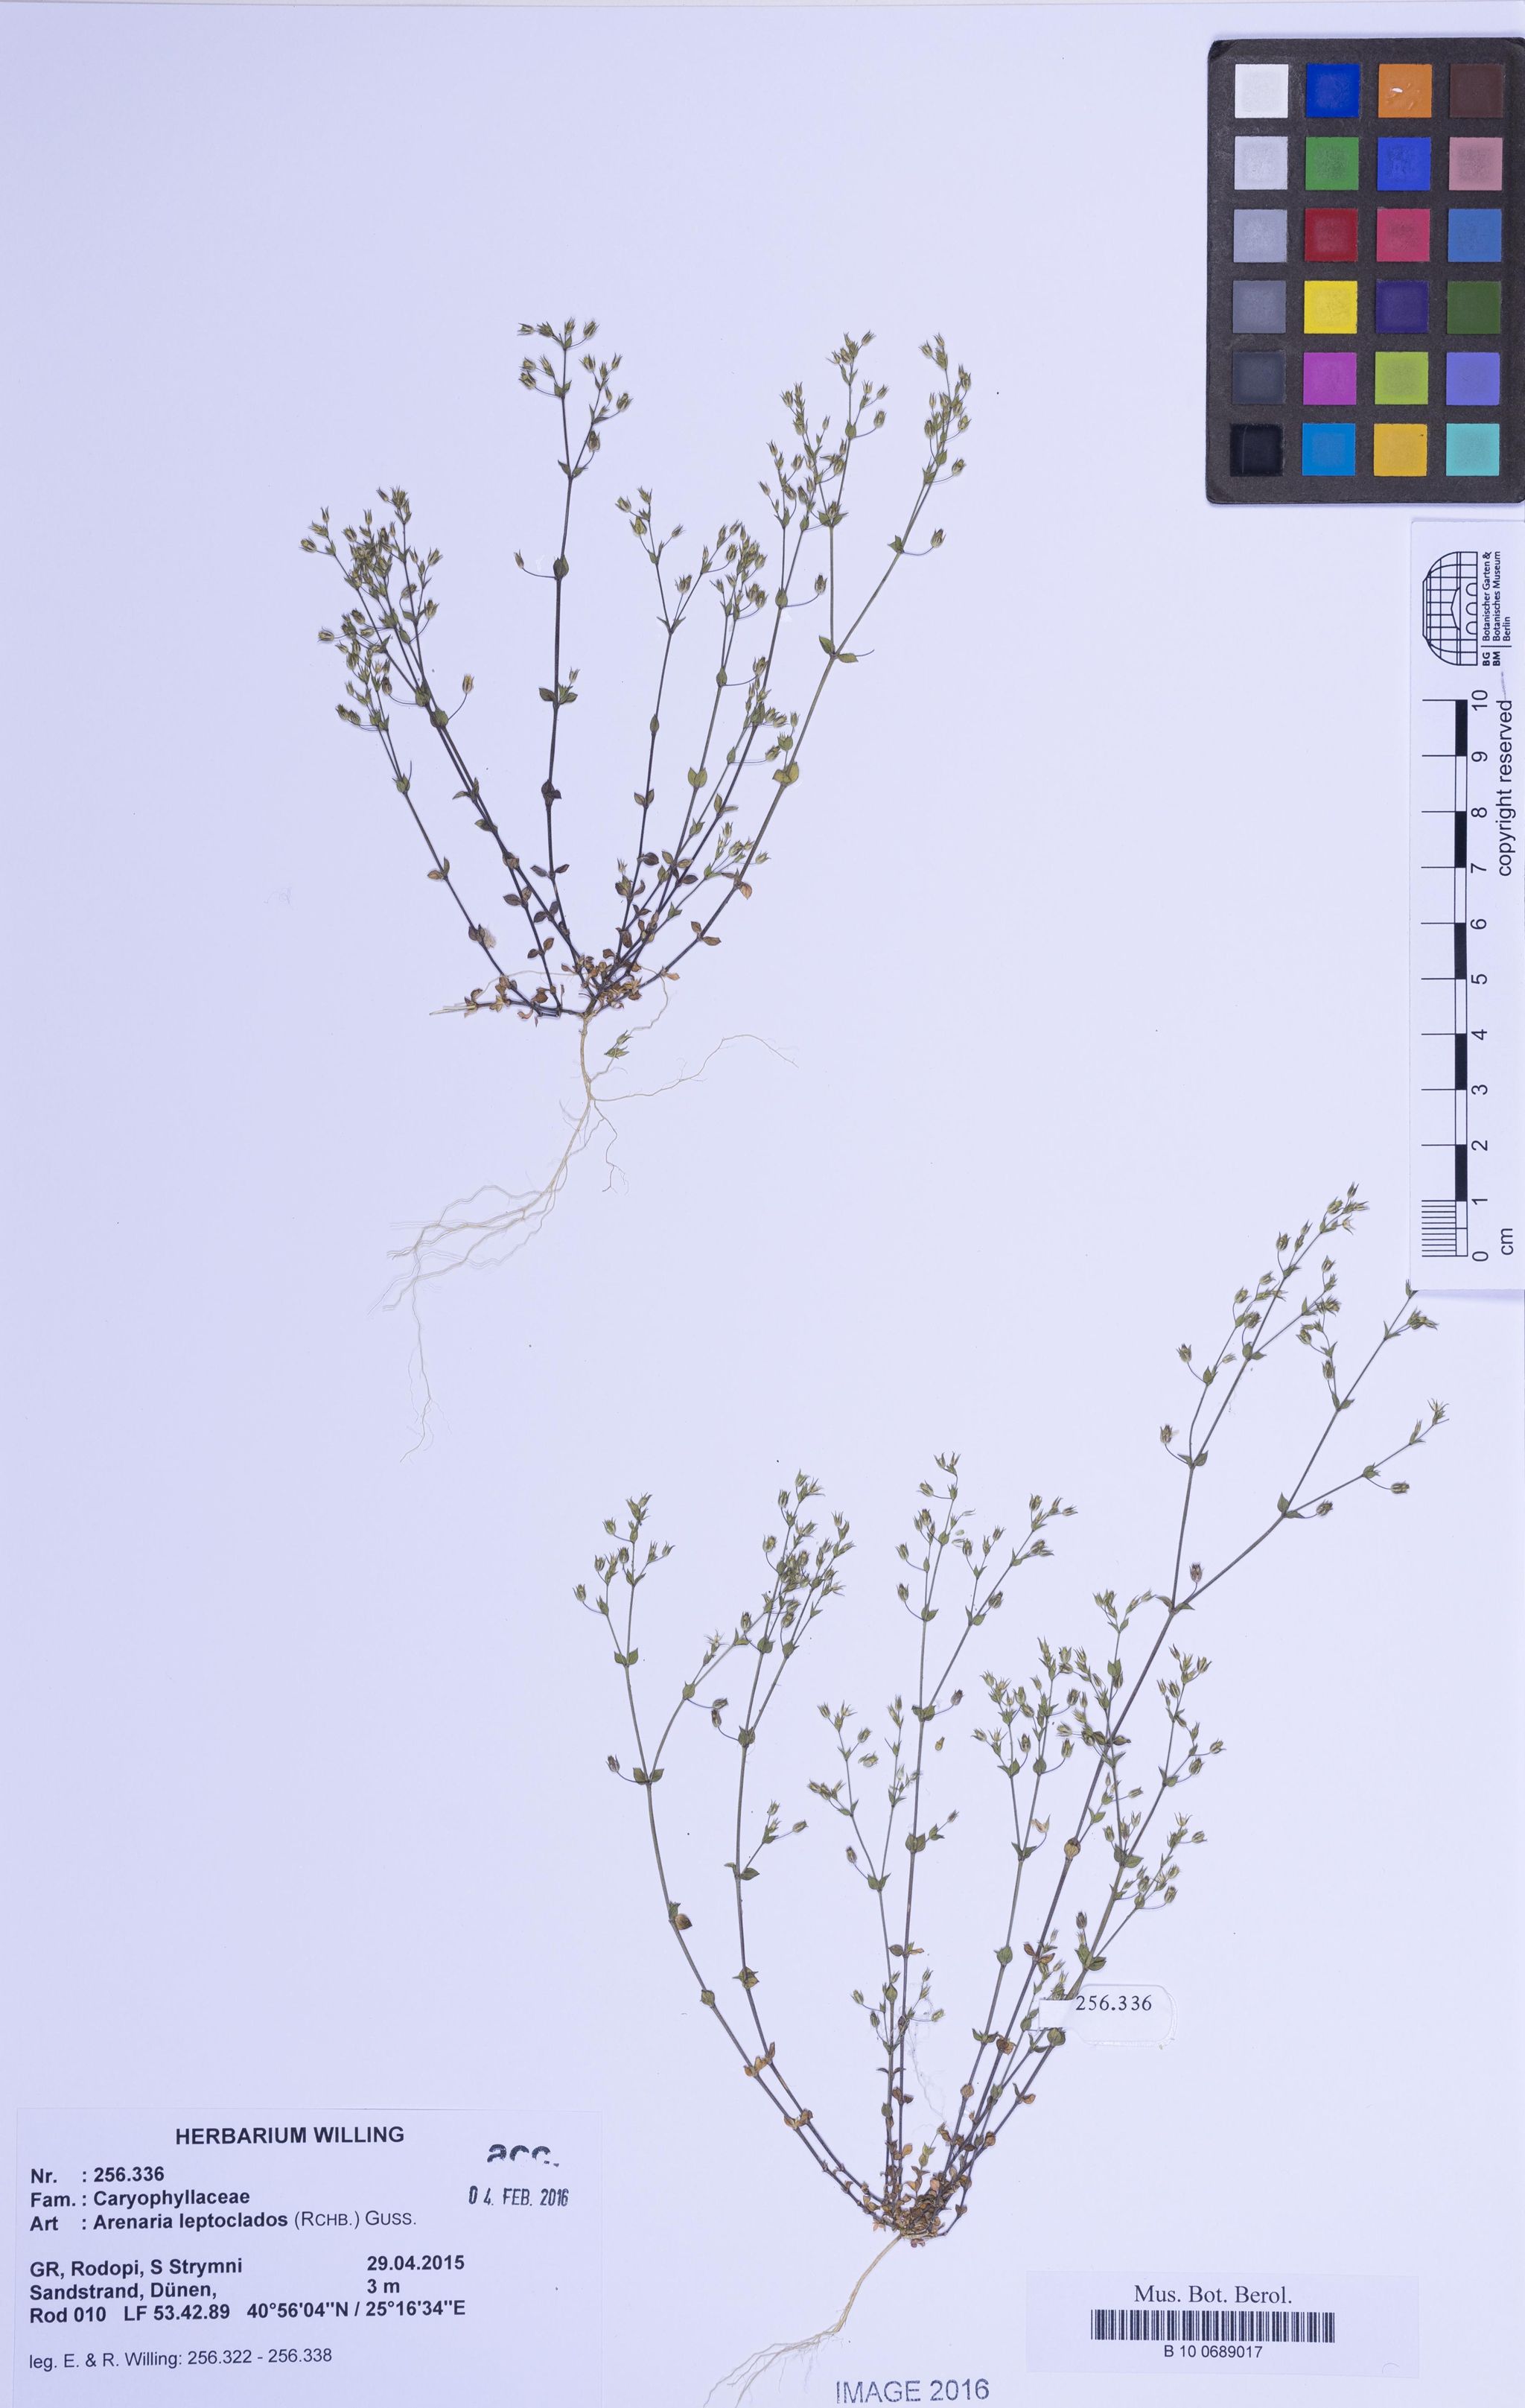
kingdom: Plantae
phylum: Tracheophyta
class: Magnoliopsida
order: Caryophyllales
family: Caryophyllaceae
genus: Arenaria
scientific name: Arenaria leptoclados
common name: Thyme-leaved sandwort
